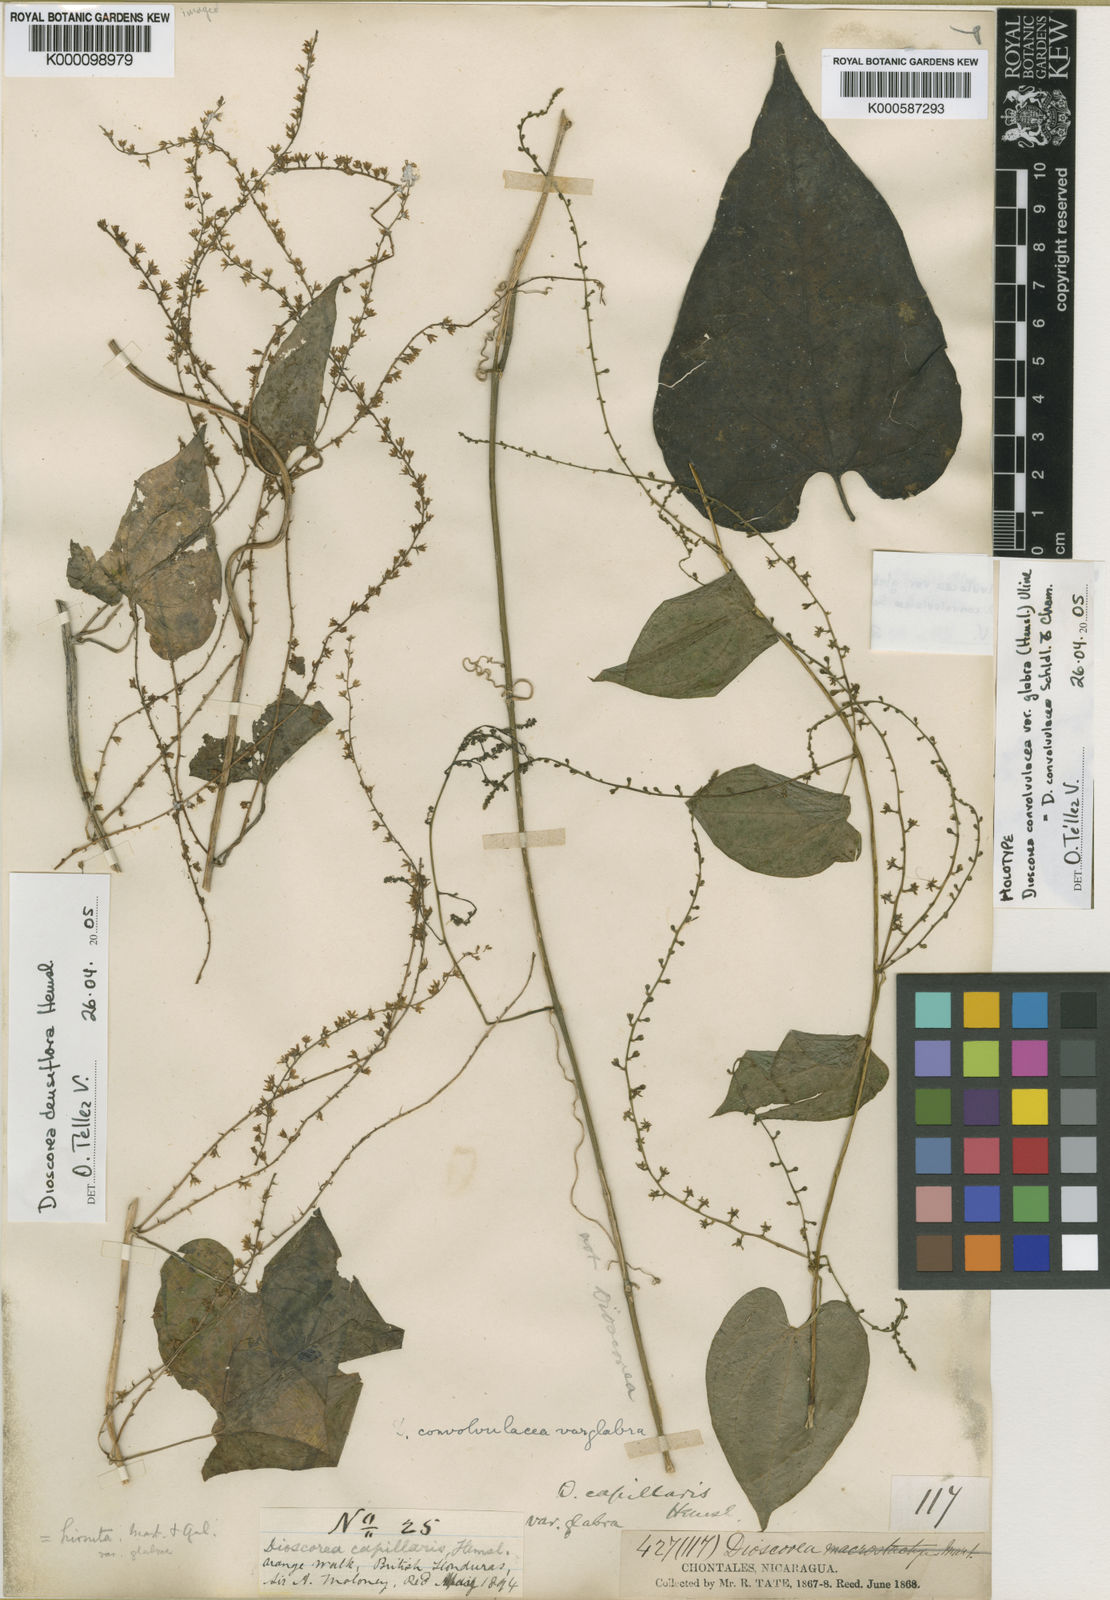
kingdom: Plantae
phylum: Tracheophyta
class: Liliopsida
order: Dioscoreales
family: Dioscoreaceae
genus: Dioscorea
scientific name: Dioscorea convolvulacea
